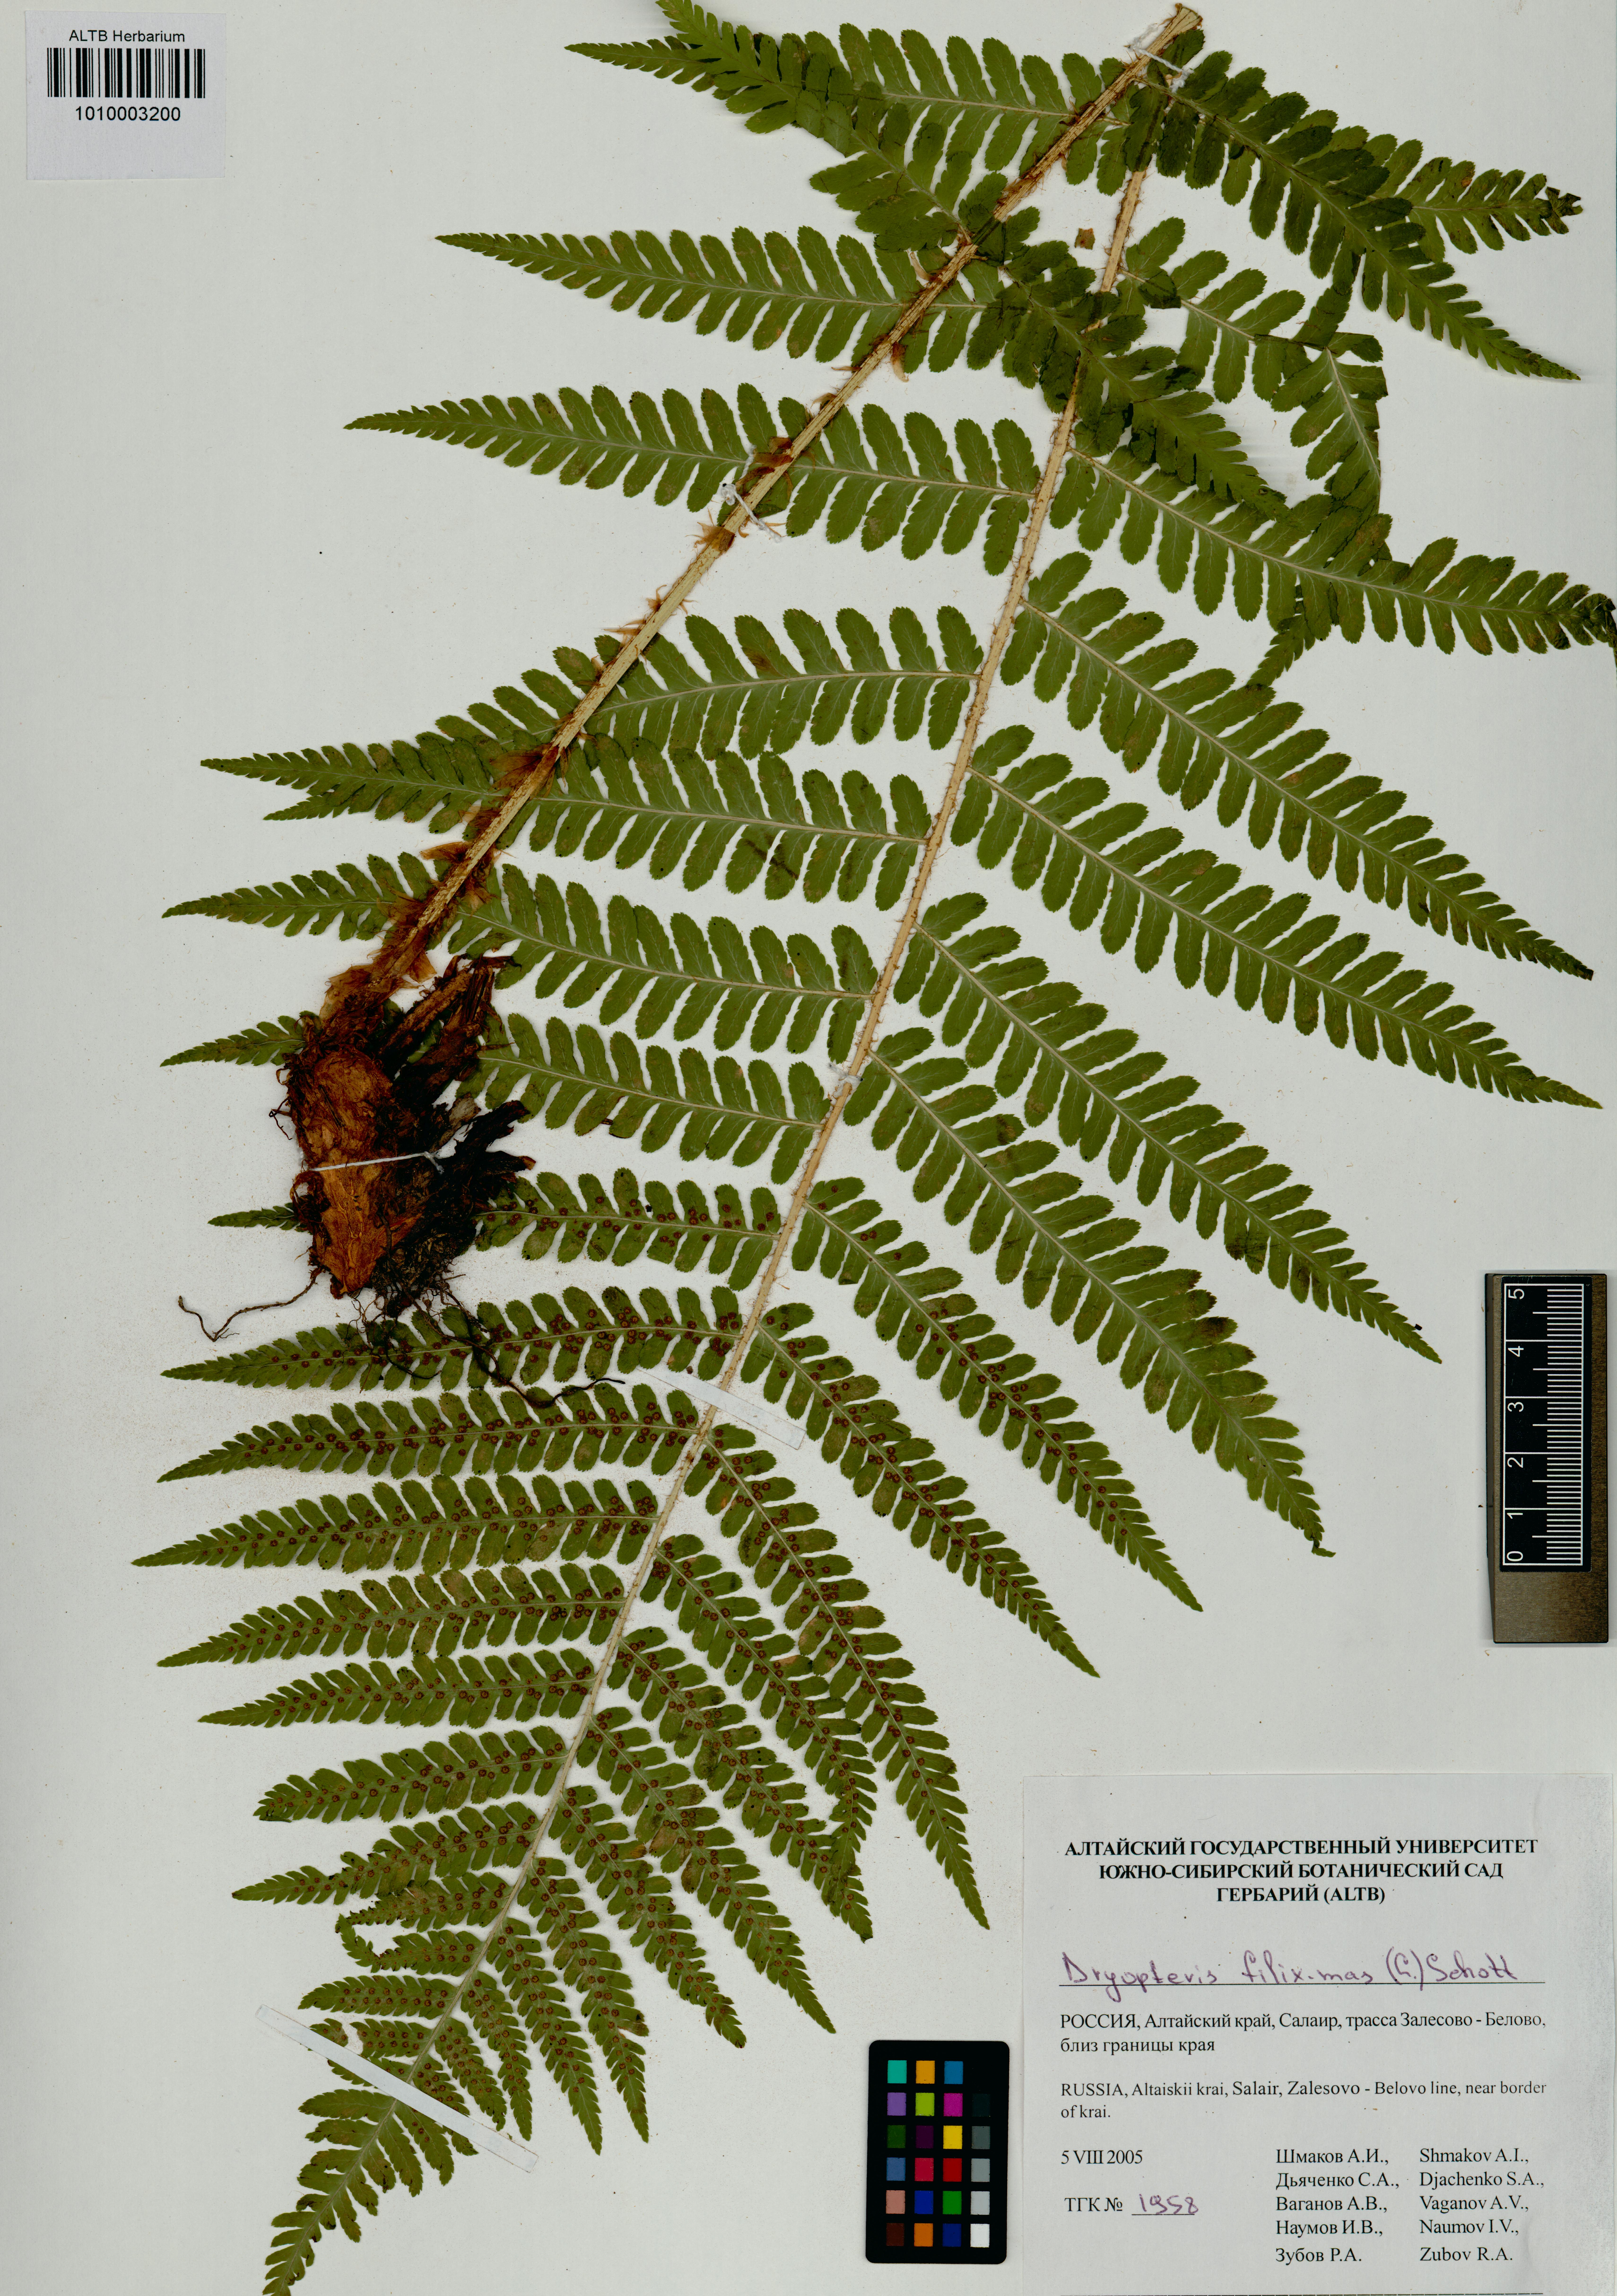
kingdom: Plantae
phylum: Tracheophyta
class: Polypodiopsida
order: Polypodiales
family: Dryopteridaceae
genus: Dryopteris
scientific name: Dryopteris filix-mas
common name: Male fern
